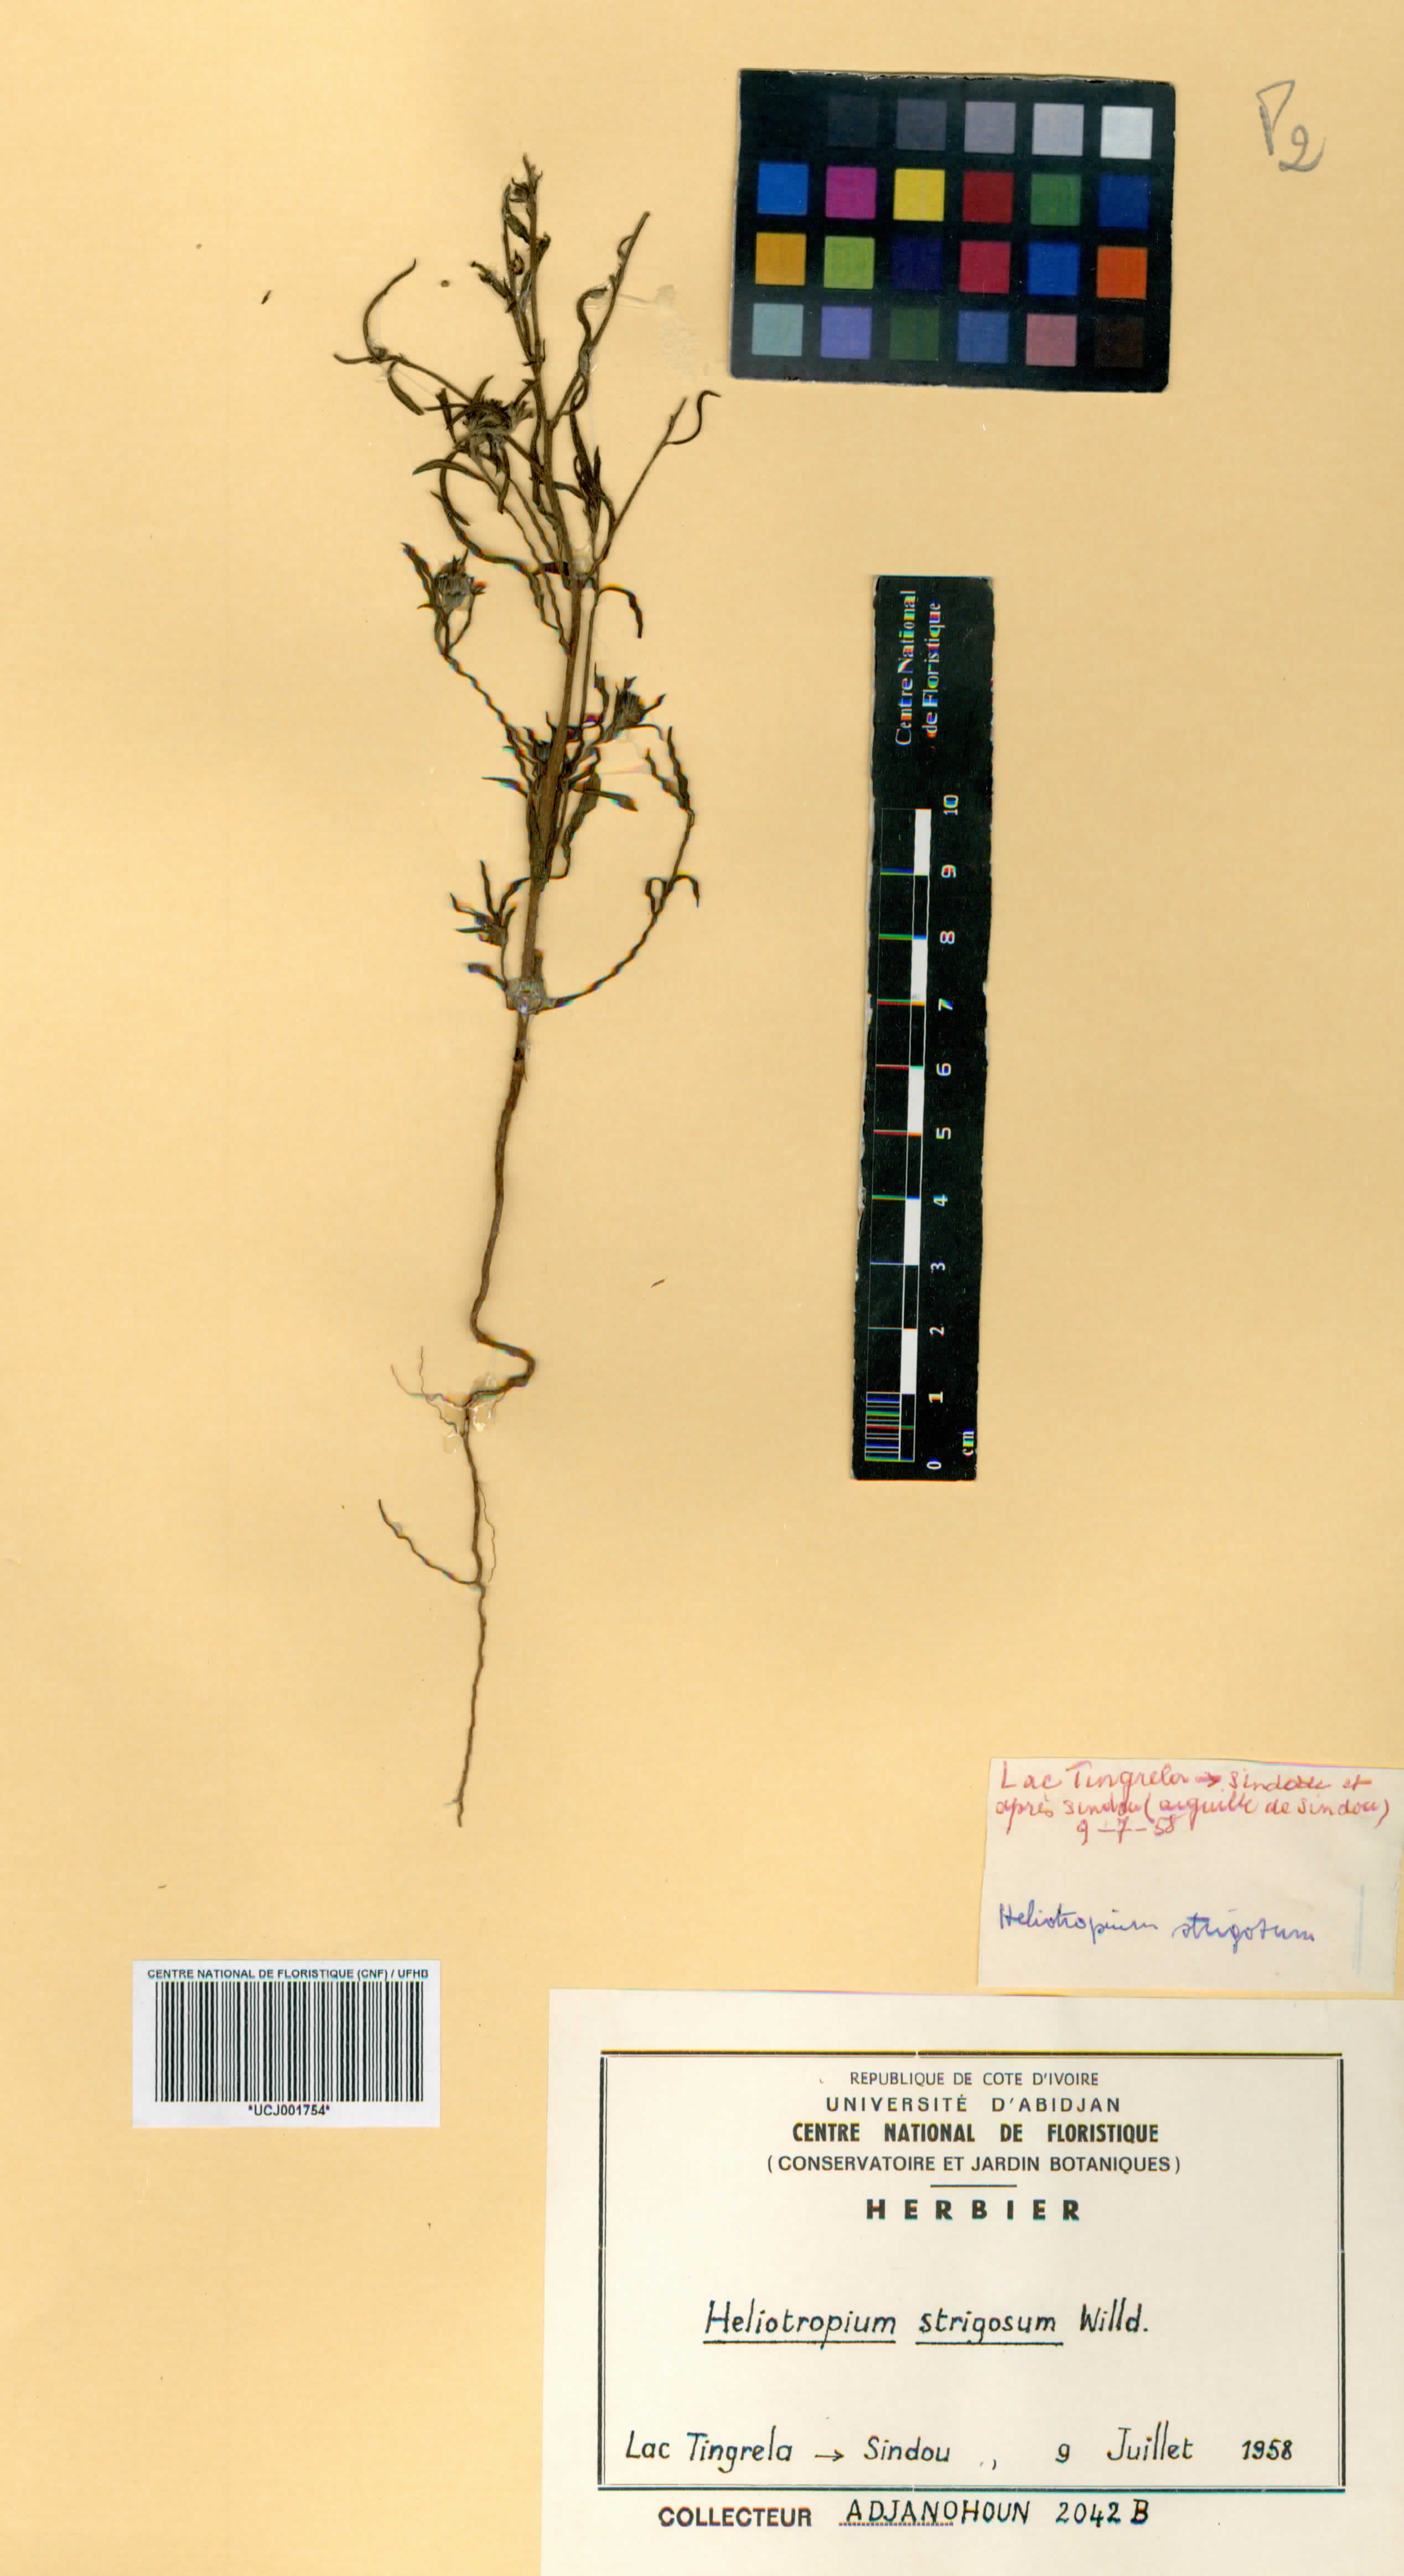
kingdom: Plantae
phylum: Tracheophyta
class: Magnoliopsida
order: Boraginales
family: Heliotropiaceae
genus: Euploca
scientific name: Euploca strigosa
